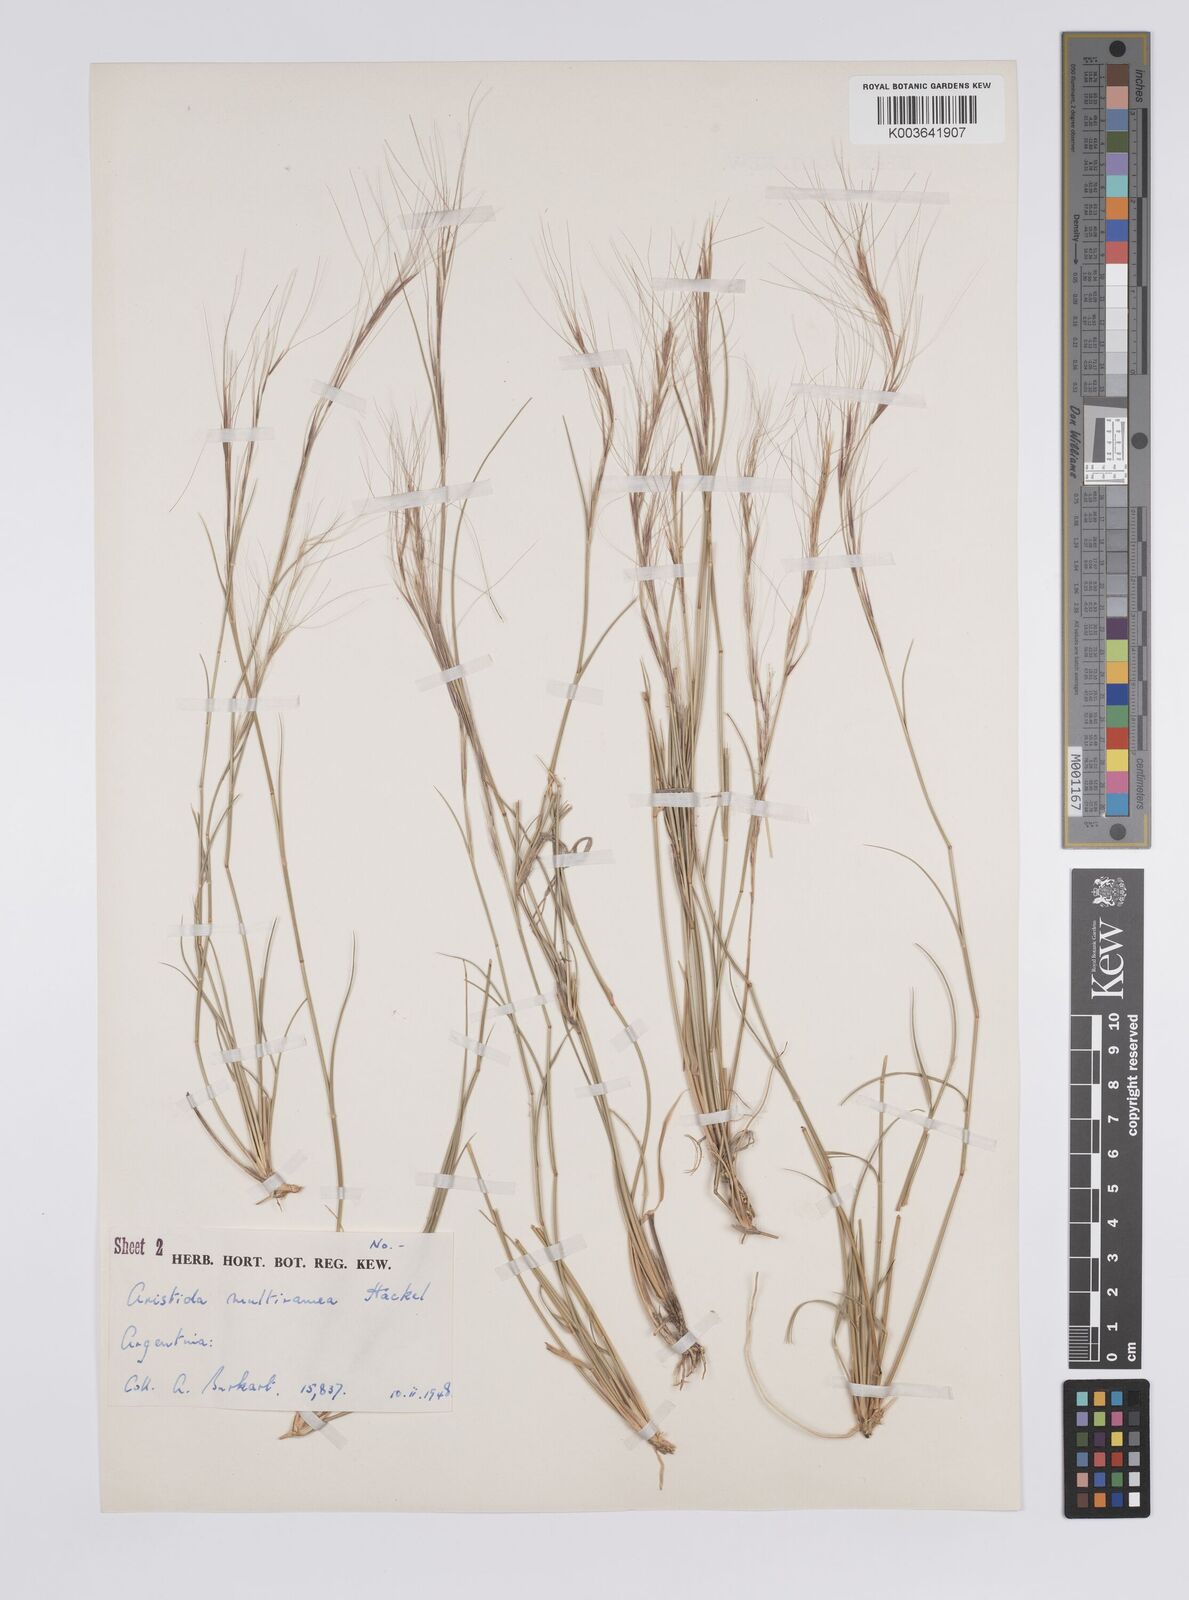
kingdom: Plantae
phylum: Tracheophyta
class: Liliopsida
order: Poales
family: Poaceae
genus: Aristida
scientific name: Aristida multiramea
